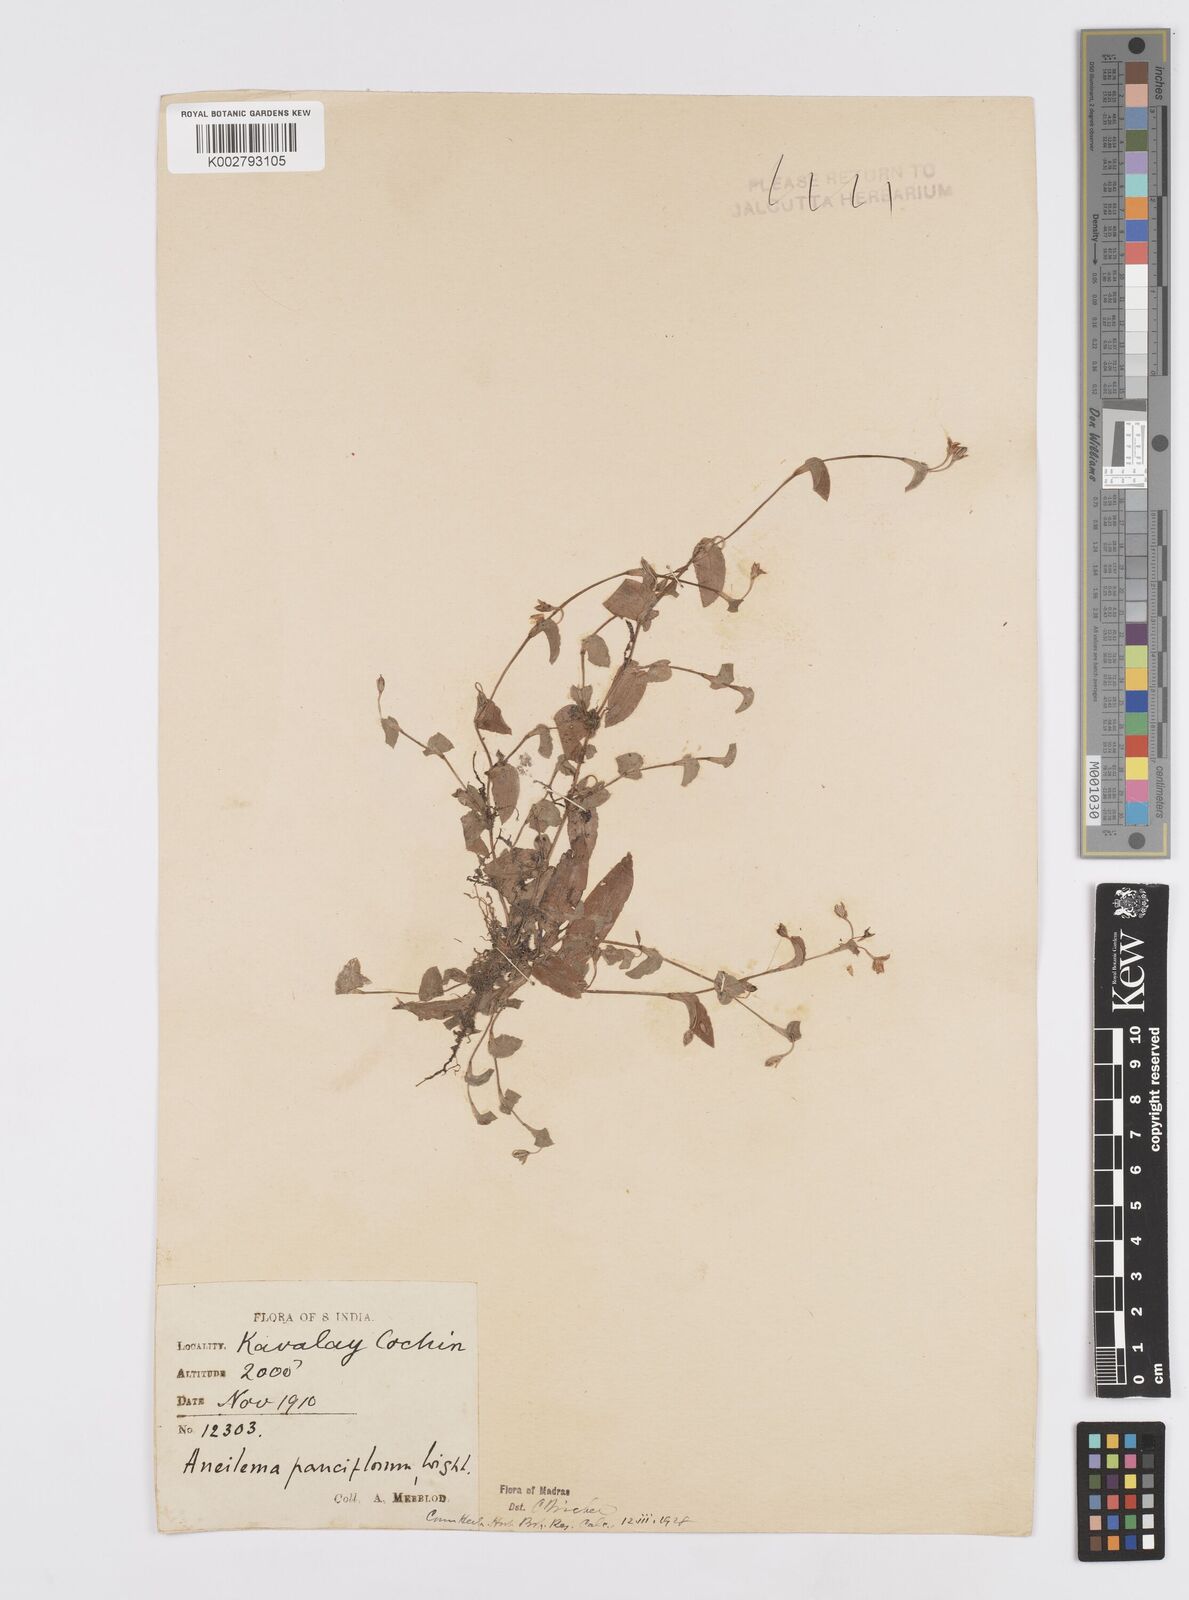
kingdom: Plantae
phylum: Tracheophyta
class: Liliopsida
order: Commelinales
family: Commelinaceae
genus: Murdannia
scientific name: Murdannia pauciflora
